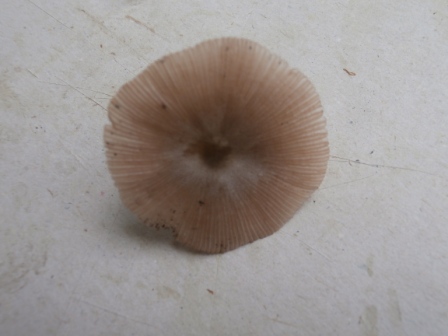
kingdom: Fungi
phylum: Basidiomycota
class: Agaricomycetes
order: Agaricales
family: Bolbitiaceae
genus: Bolbitius
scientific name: Bolbitius coprophilus
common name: rosa gulhat
